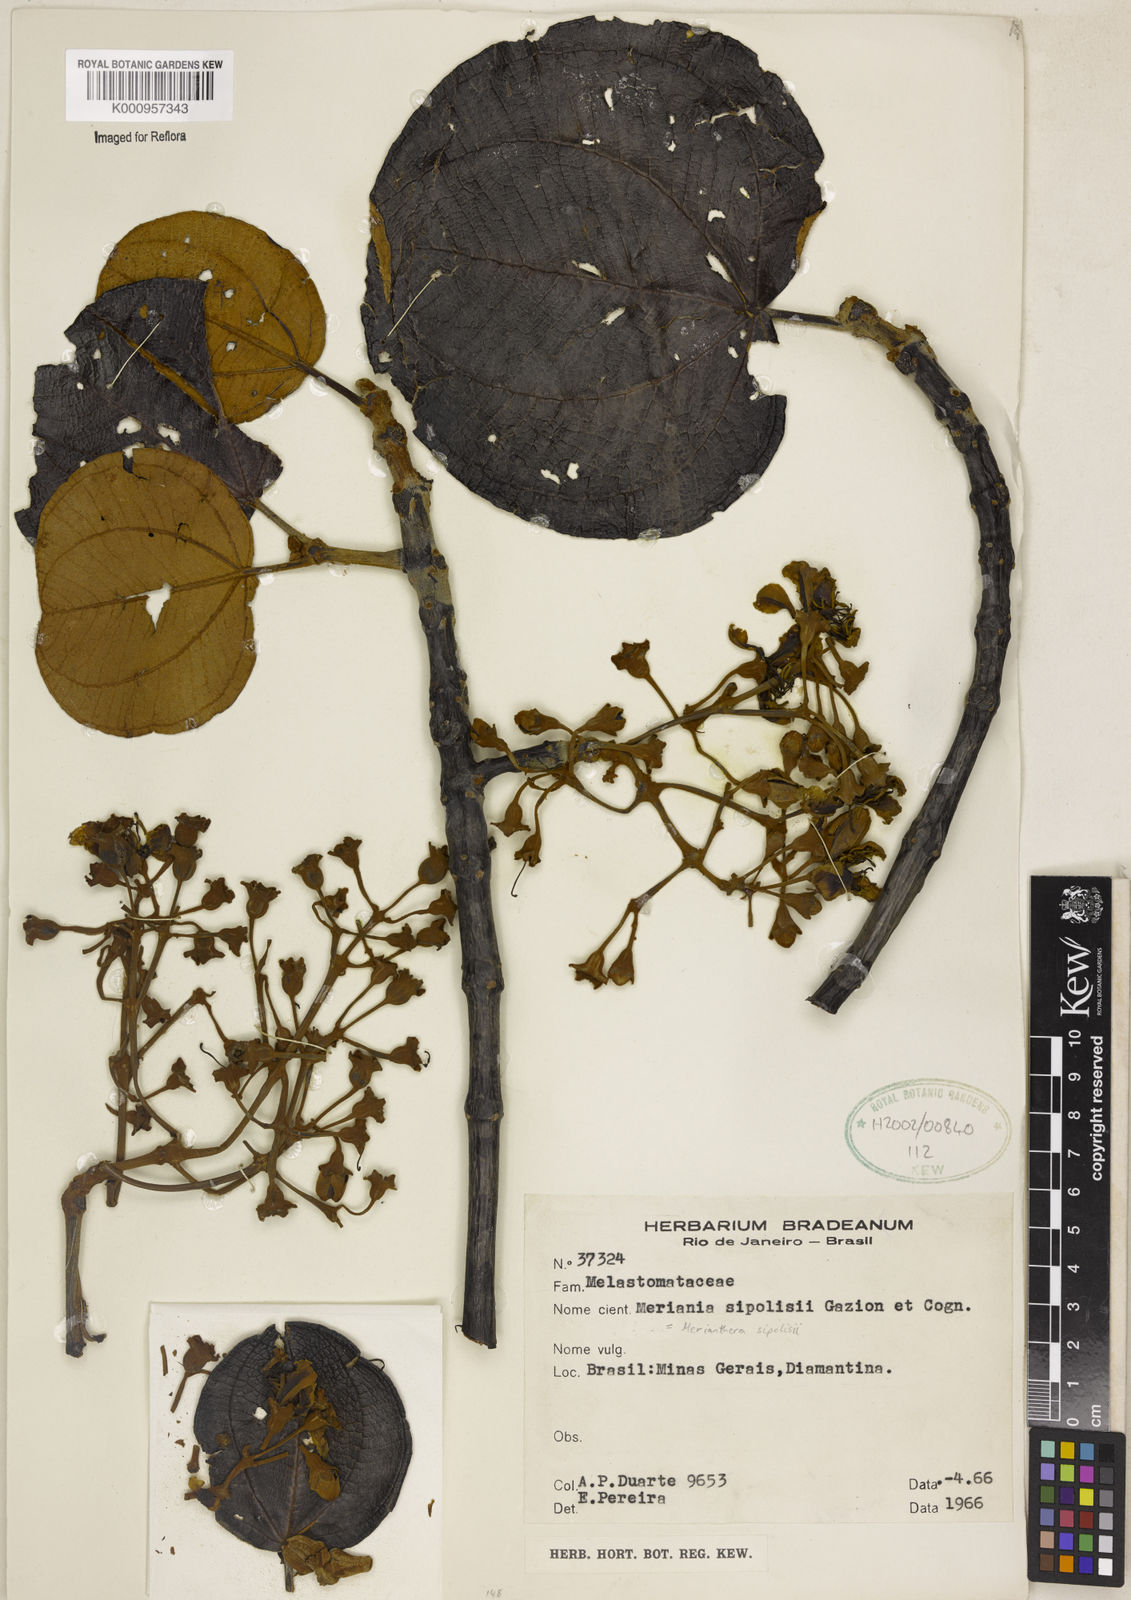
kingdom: Plantae
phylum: Tracheophyta
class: Magnoliopsida
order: Myrtales
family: Melastomataceae
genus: Merianthera
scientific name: Merianthera sipolisii
